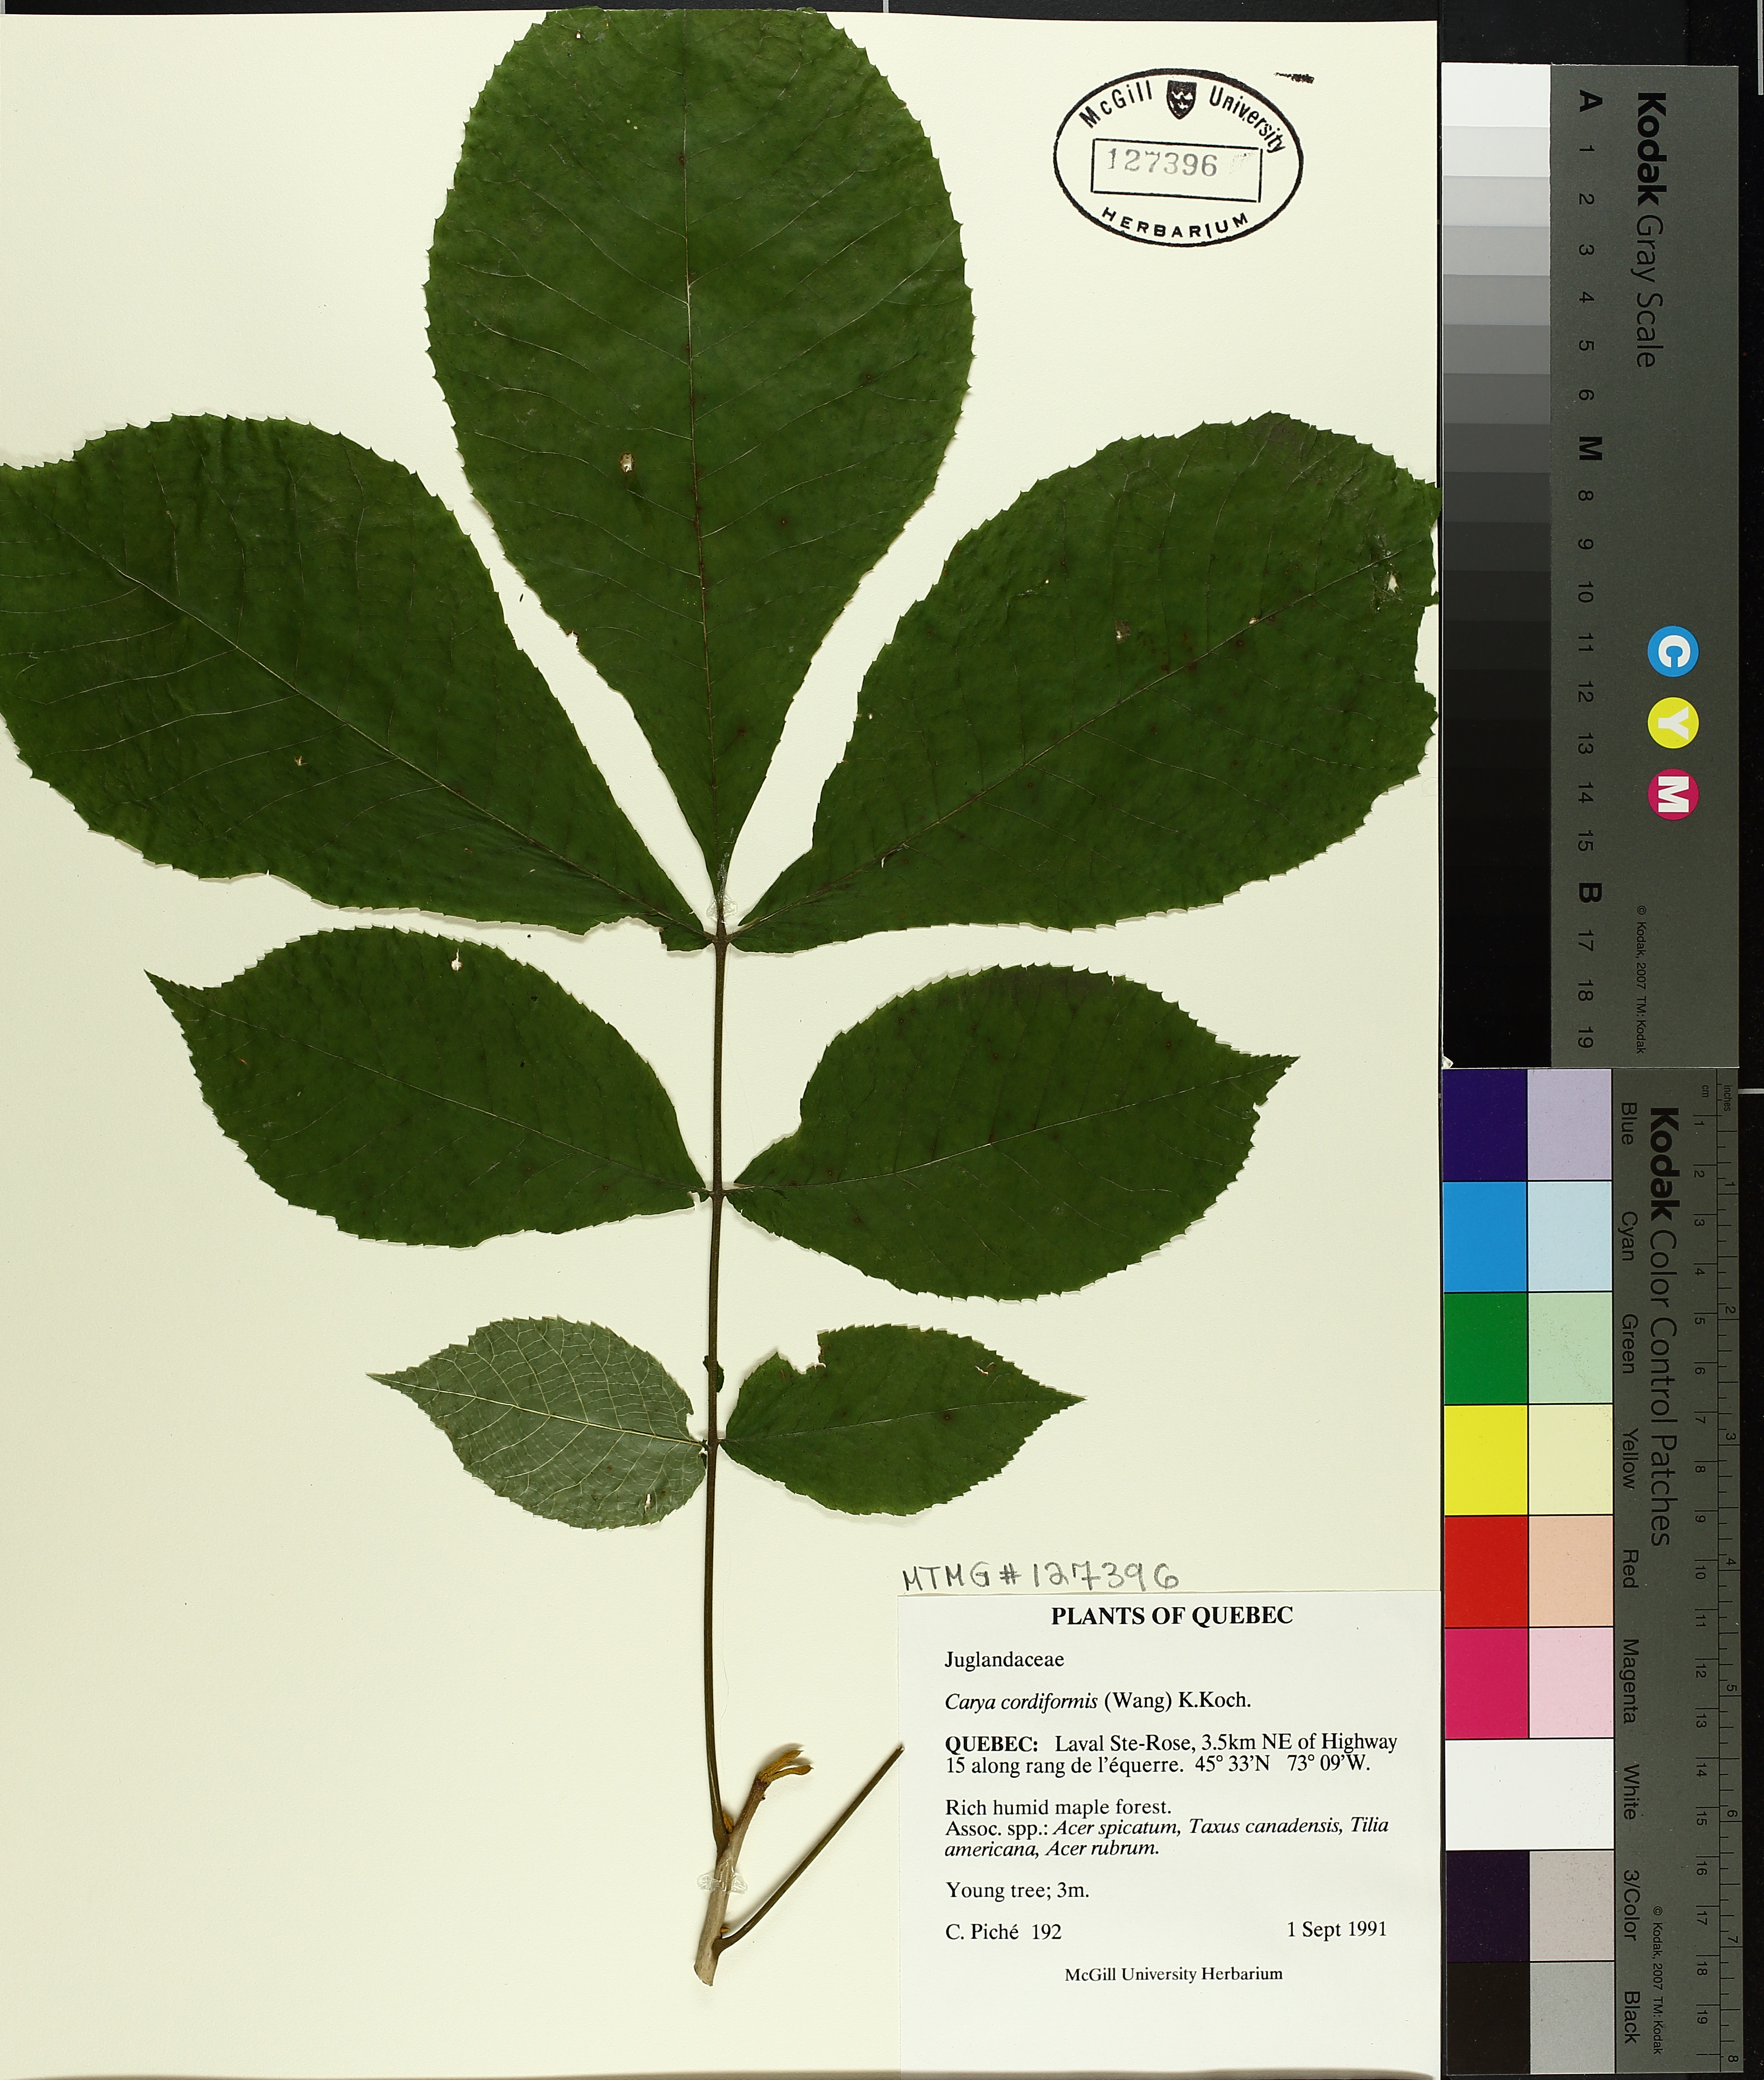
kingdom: Plantae
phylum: Tracheophyta
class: Magnoliopsida
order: Fagales
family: Juglandaceae
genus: Carya
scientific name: Carya cordiformis
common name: Bitternut hickory
